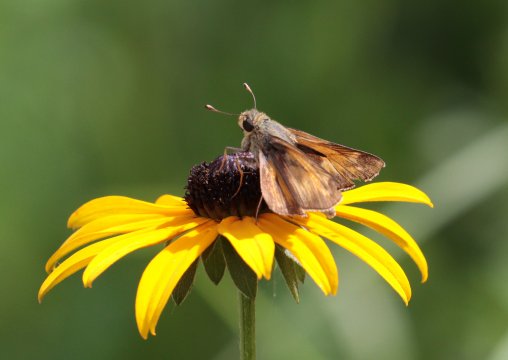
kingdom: Animalia
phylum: Arthropoda
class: Insecta
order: Lepidoptera
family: Hesperiidae
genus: Atalopedes
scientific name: Atalopedes campestris
